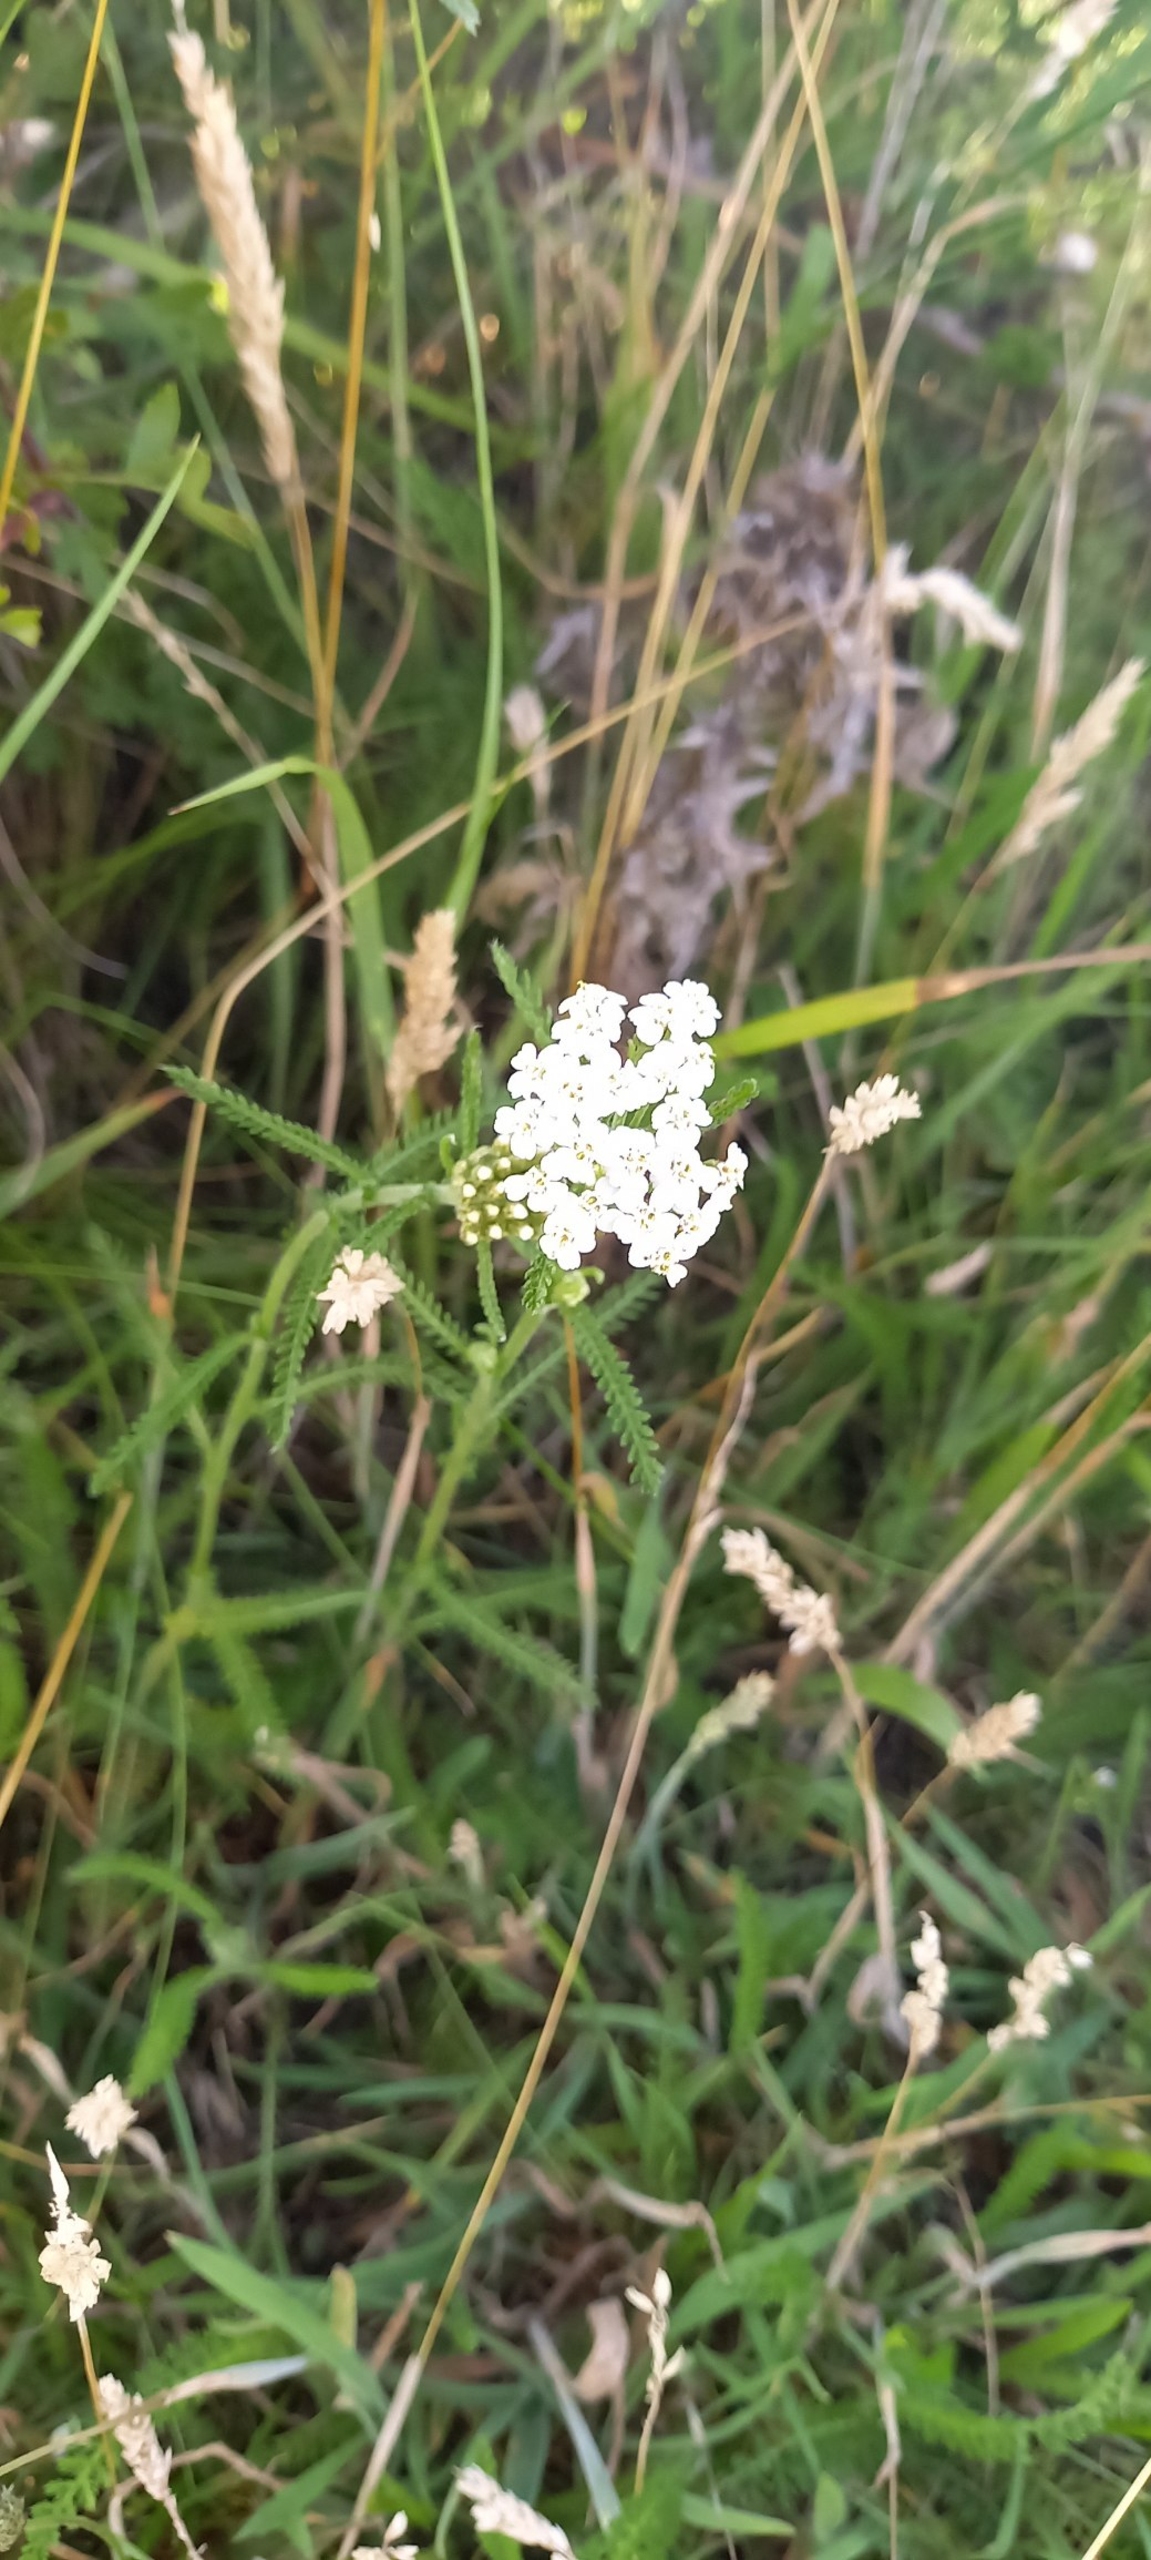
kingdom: Plantae
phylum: Tracheophyta
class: Magnoliopsida
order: Asterales
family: Asteraceae
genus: Achillea
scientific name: Achillea millefolium
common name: Almindelig røllike
